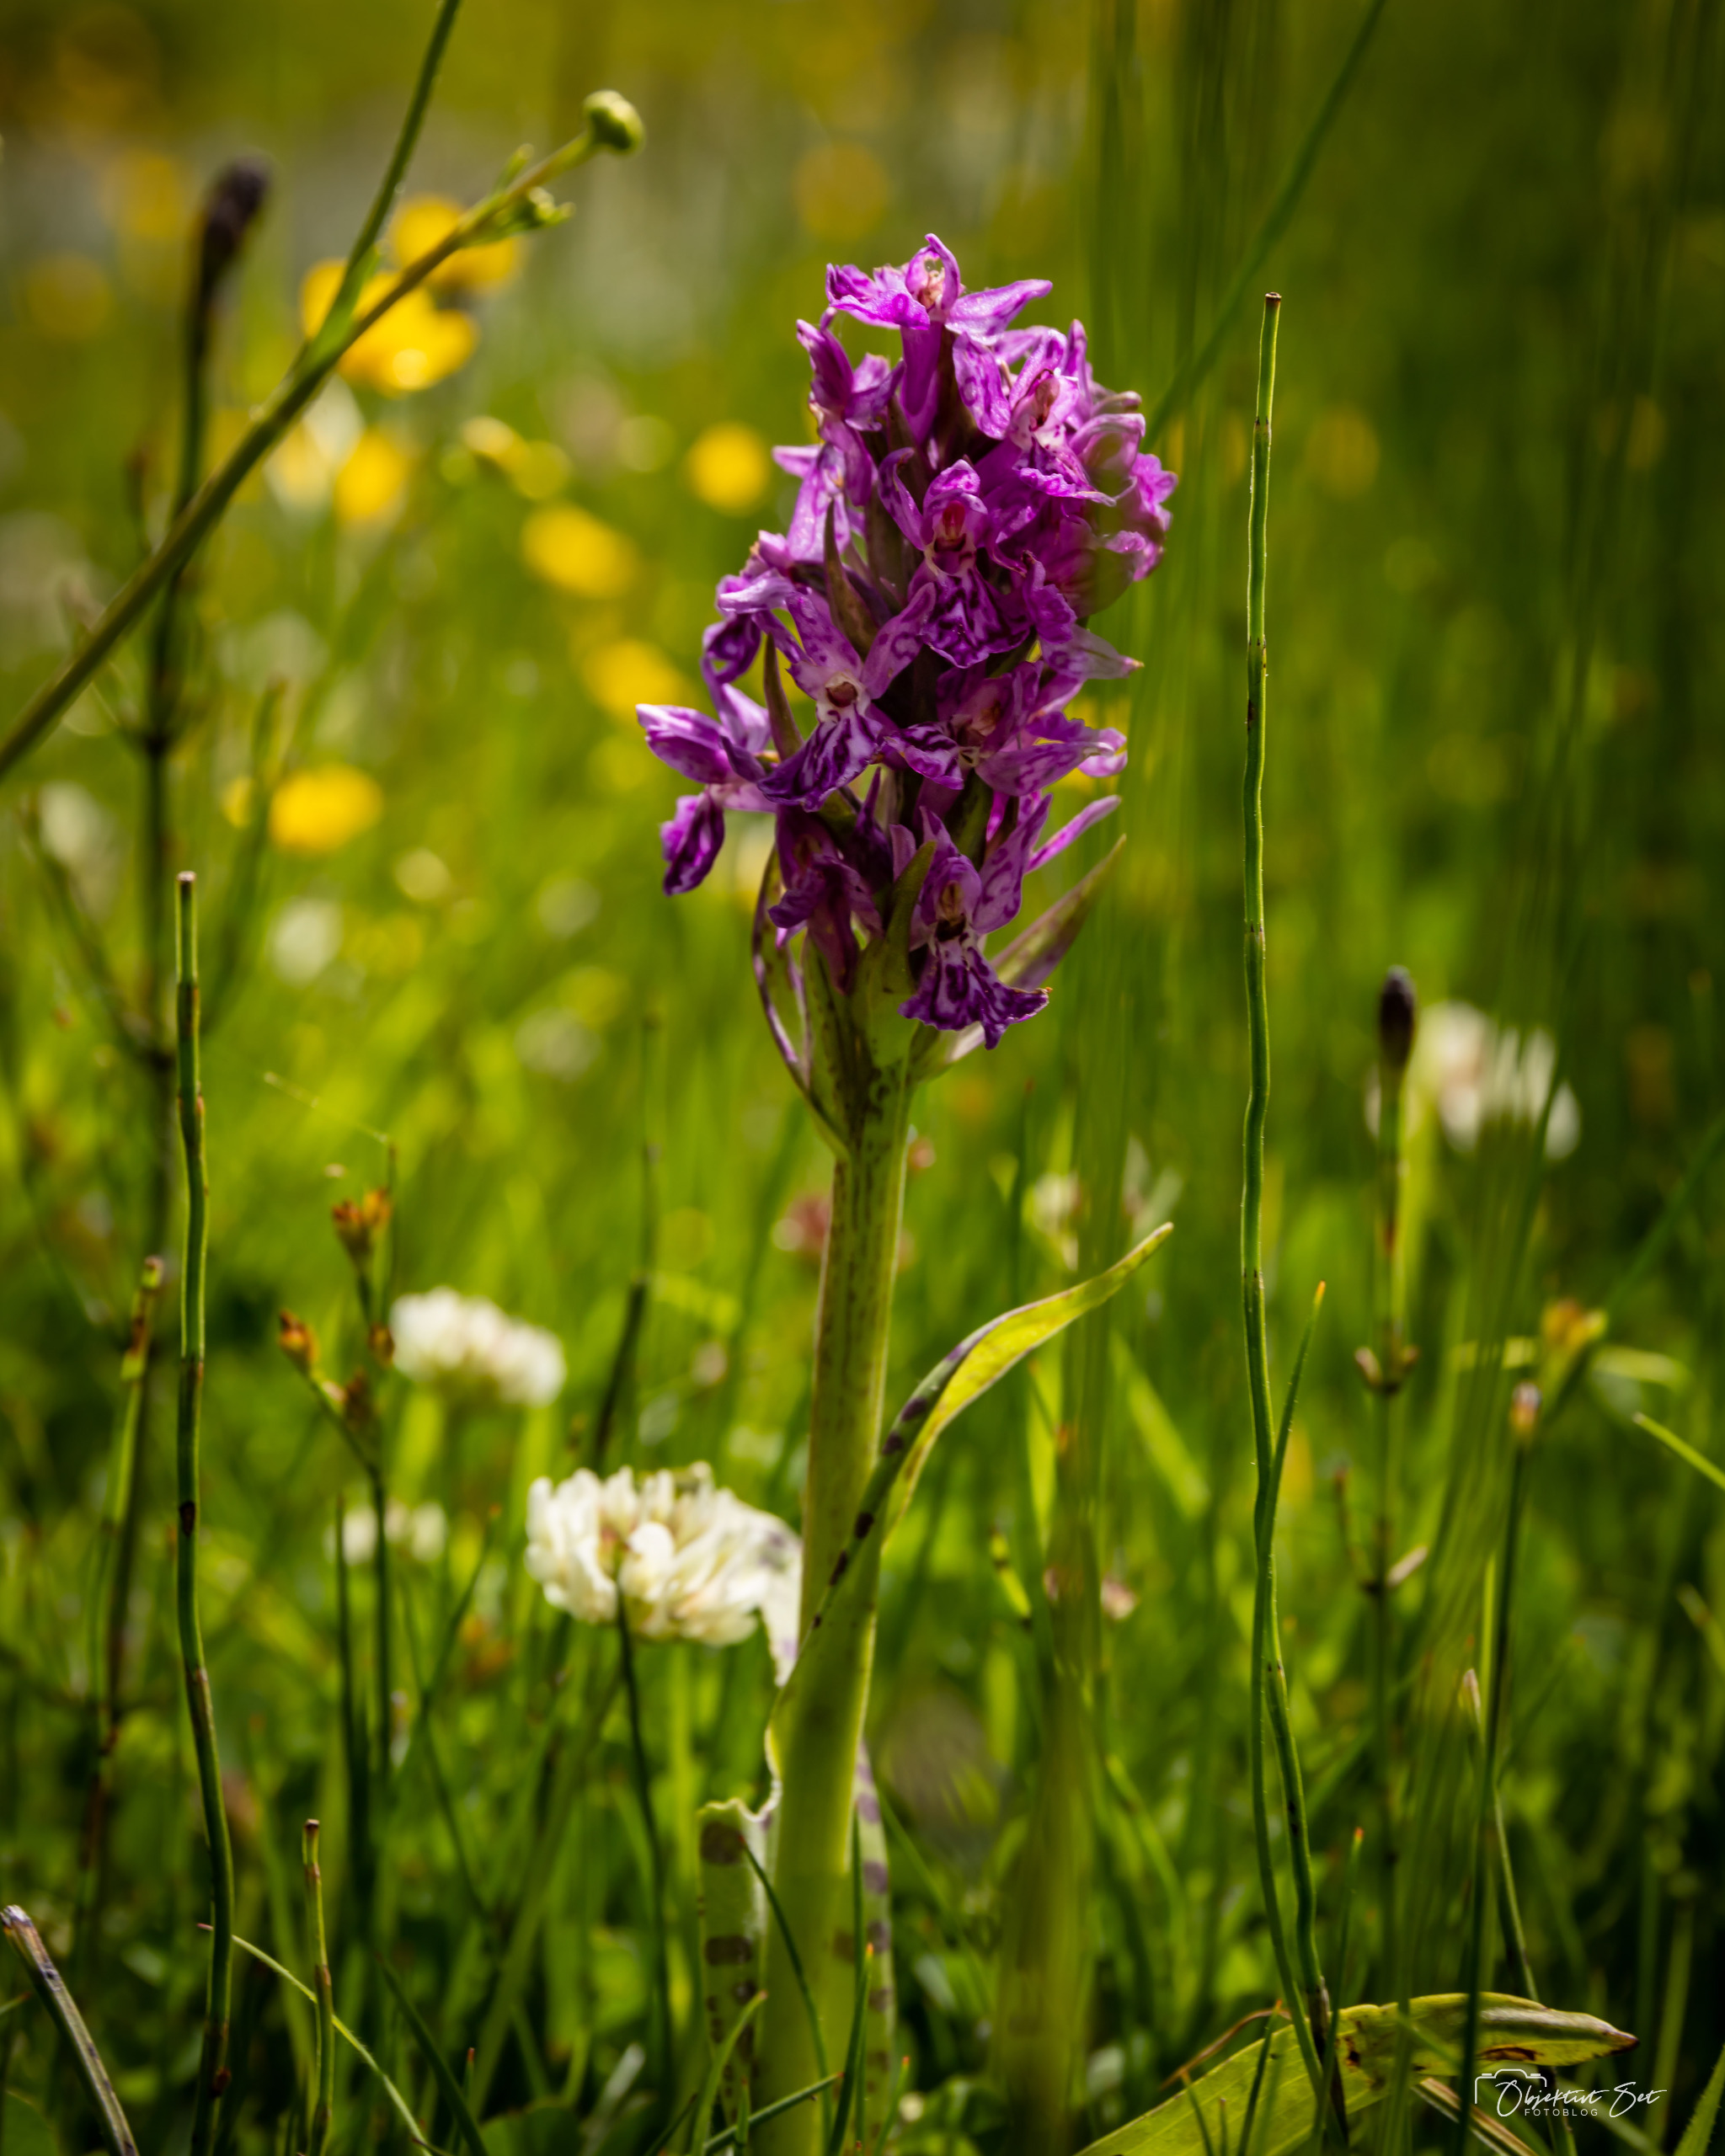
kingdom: Plantae
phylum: Tracheophyta
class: Liliopsida
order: Asparagales
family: Orchidaceae
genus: Dactylorhiza
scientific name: Dactylorhiza majalis
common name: Maj-gøgeurt
